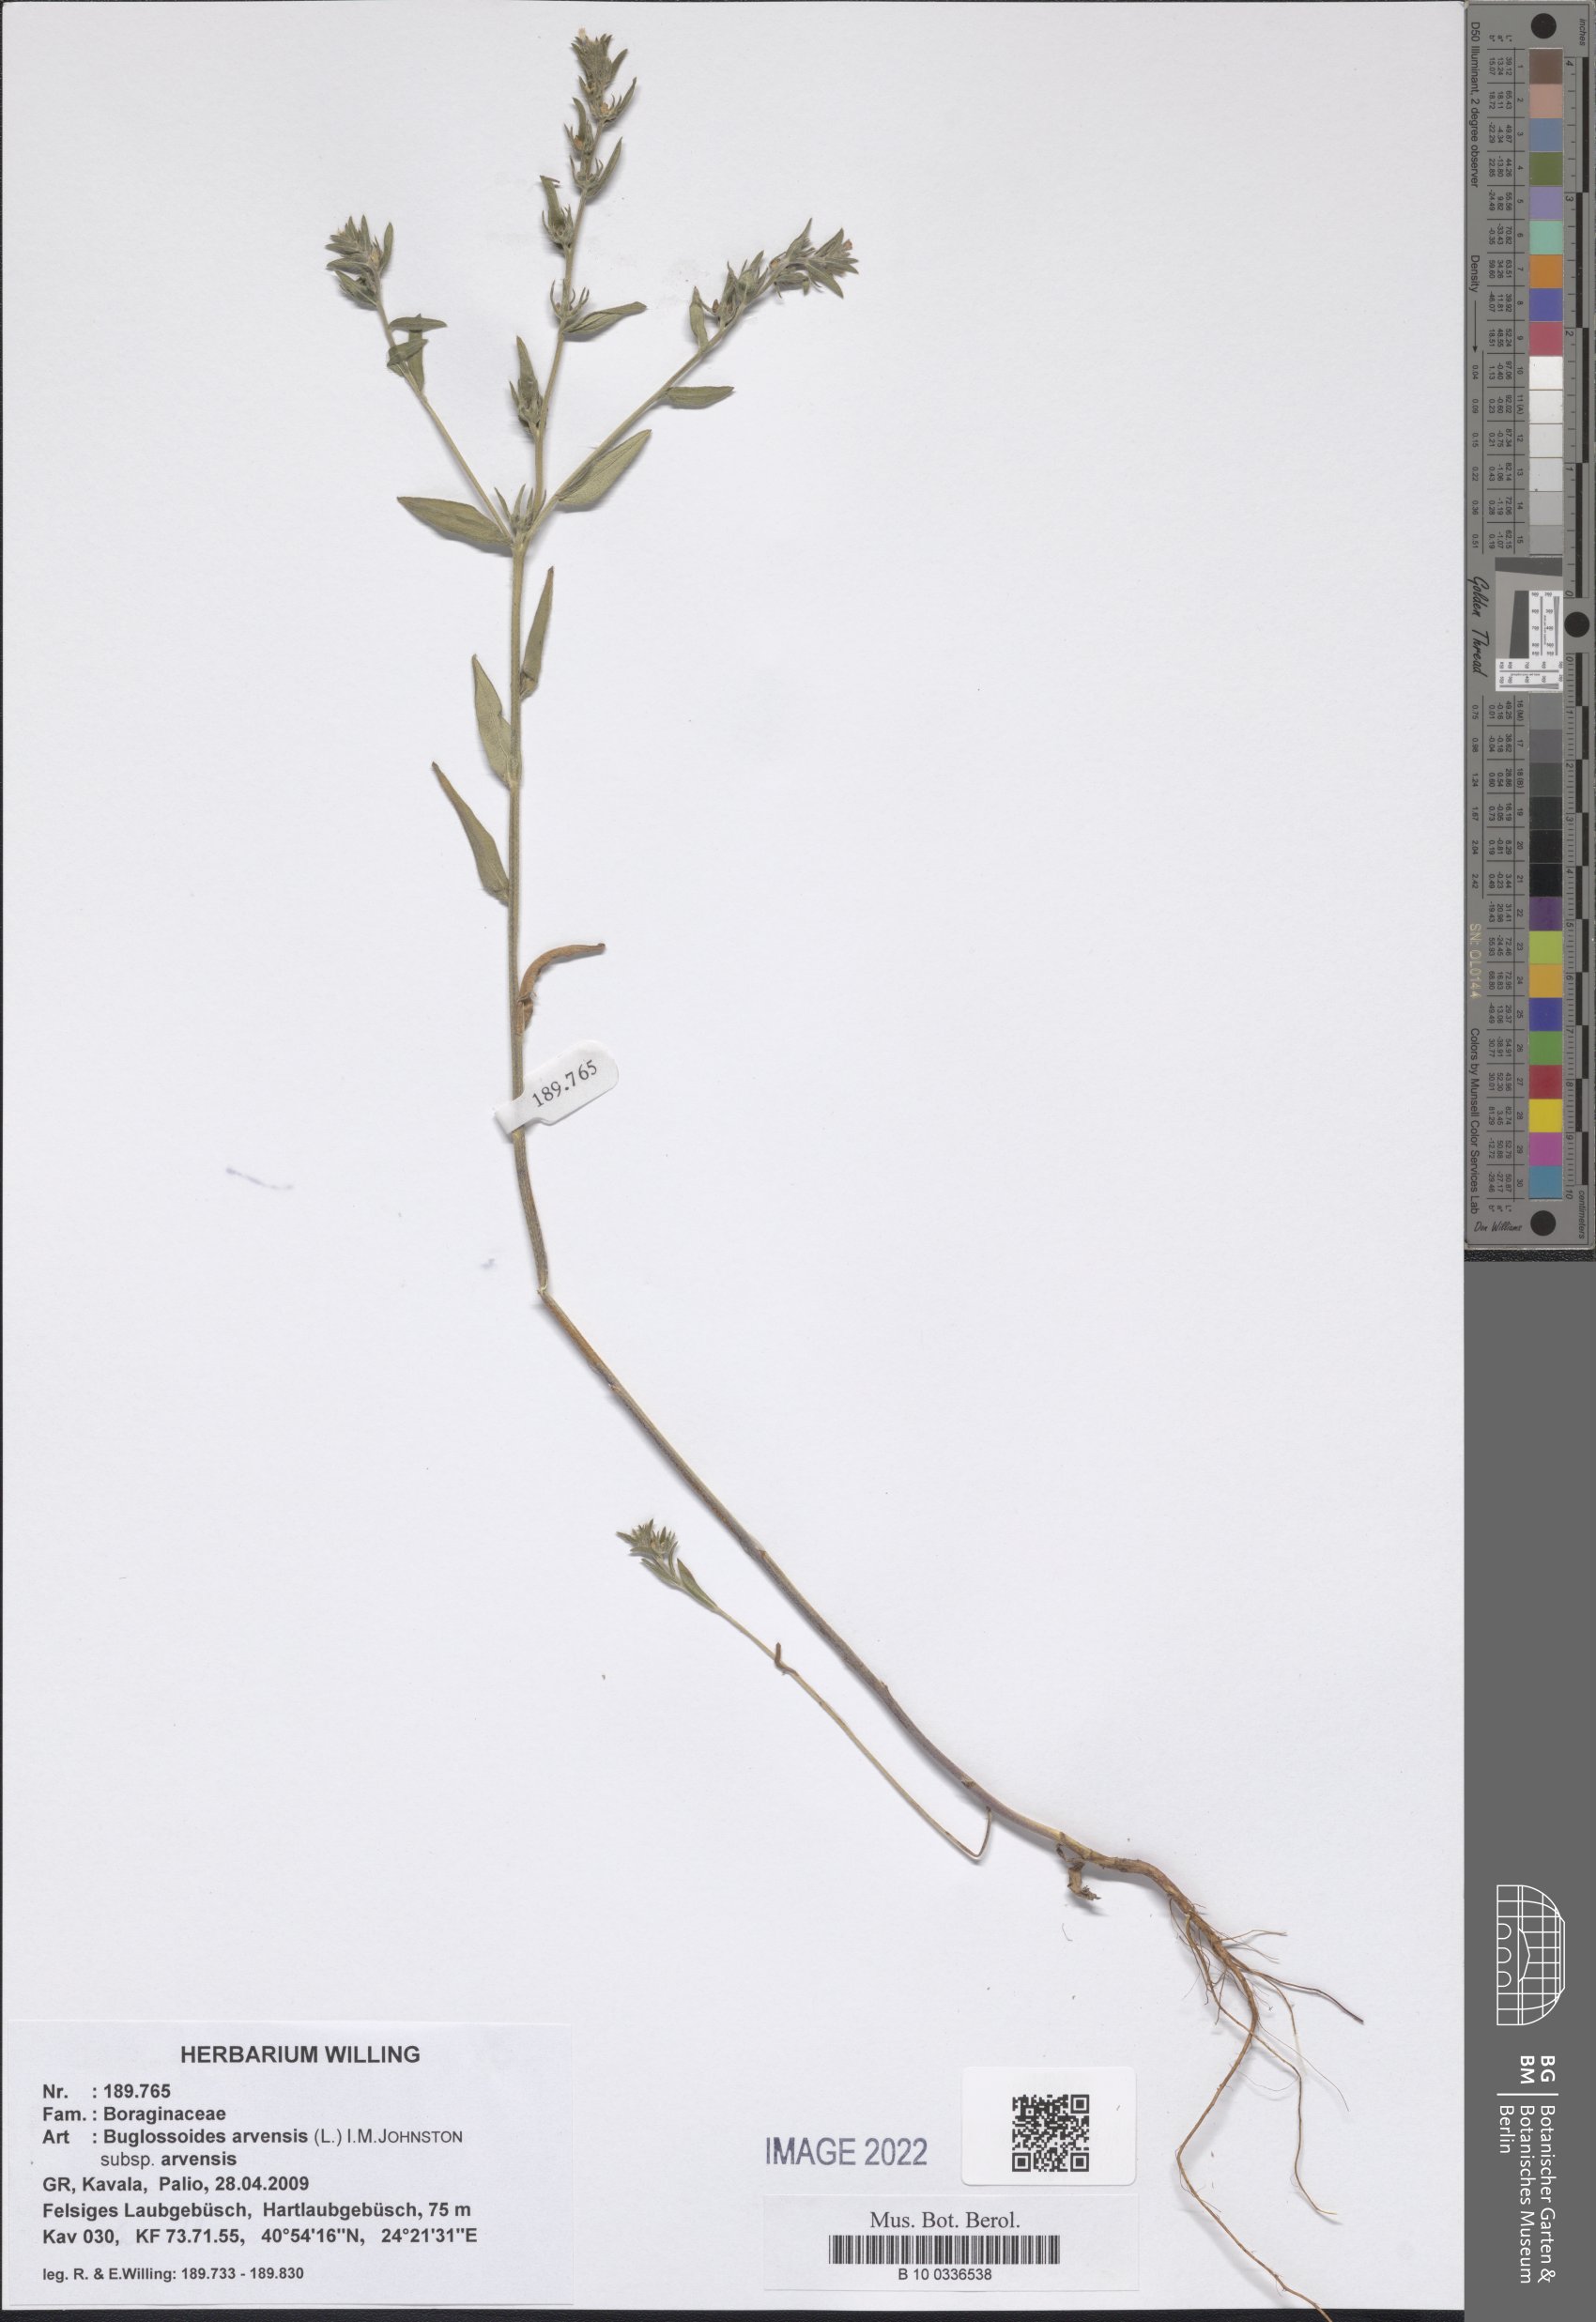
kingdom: Plantae
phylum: Tracheophyta
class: Magnoliopsida
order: Boraginales
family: Boraginaceae
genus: Buglossoides
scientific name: Buglossoides arvensis
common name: Corn gromwell
